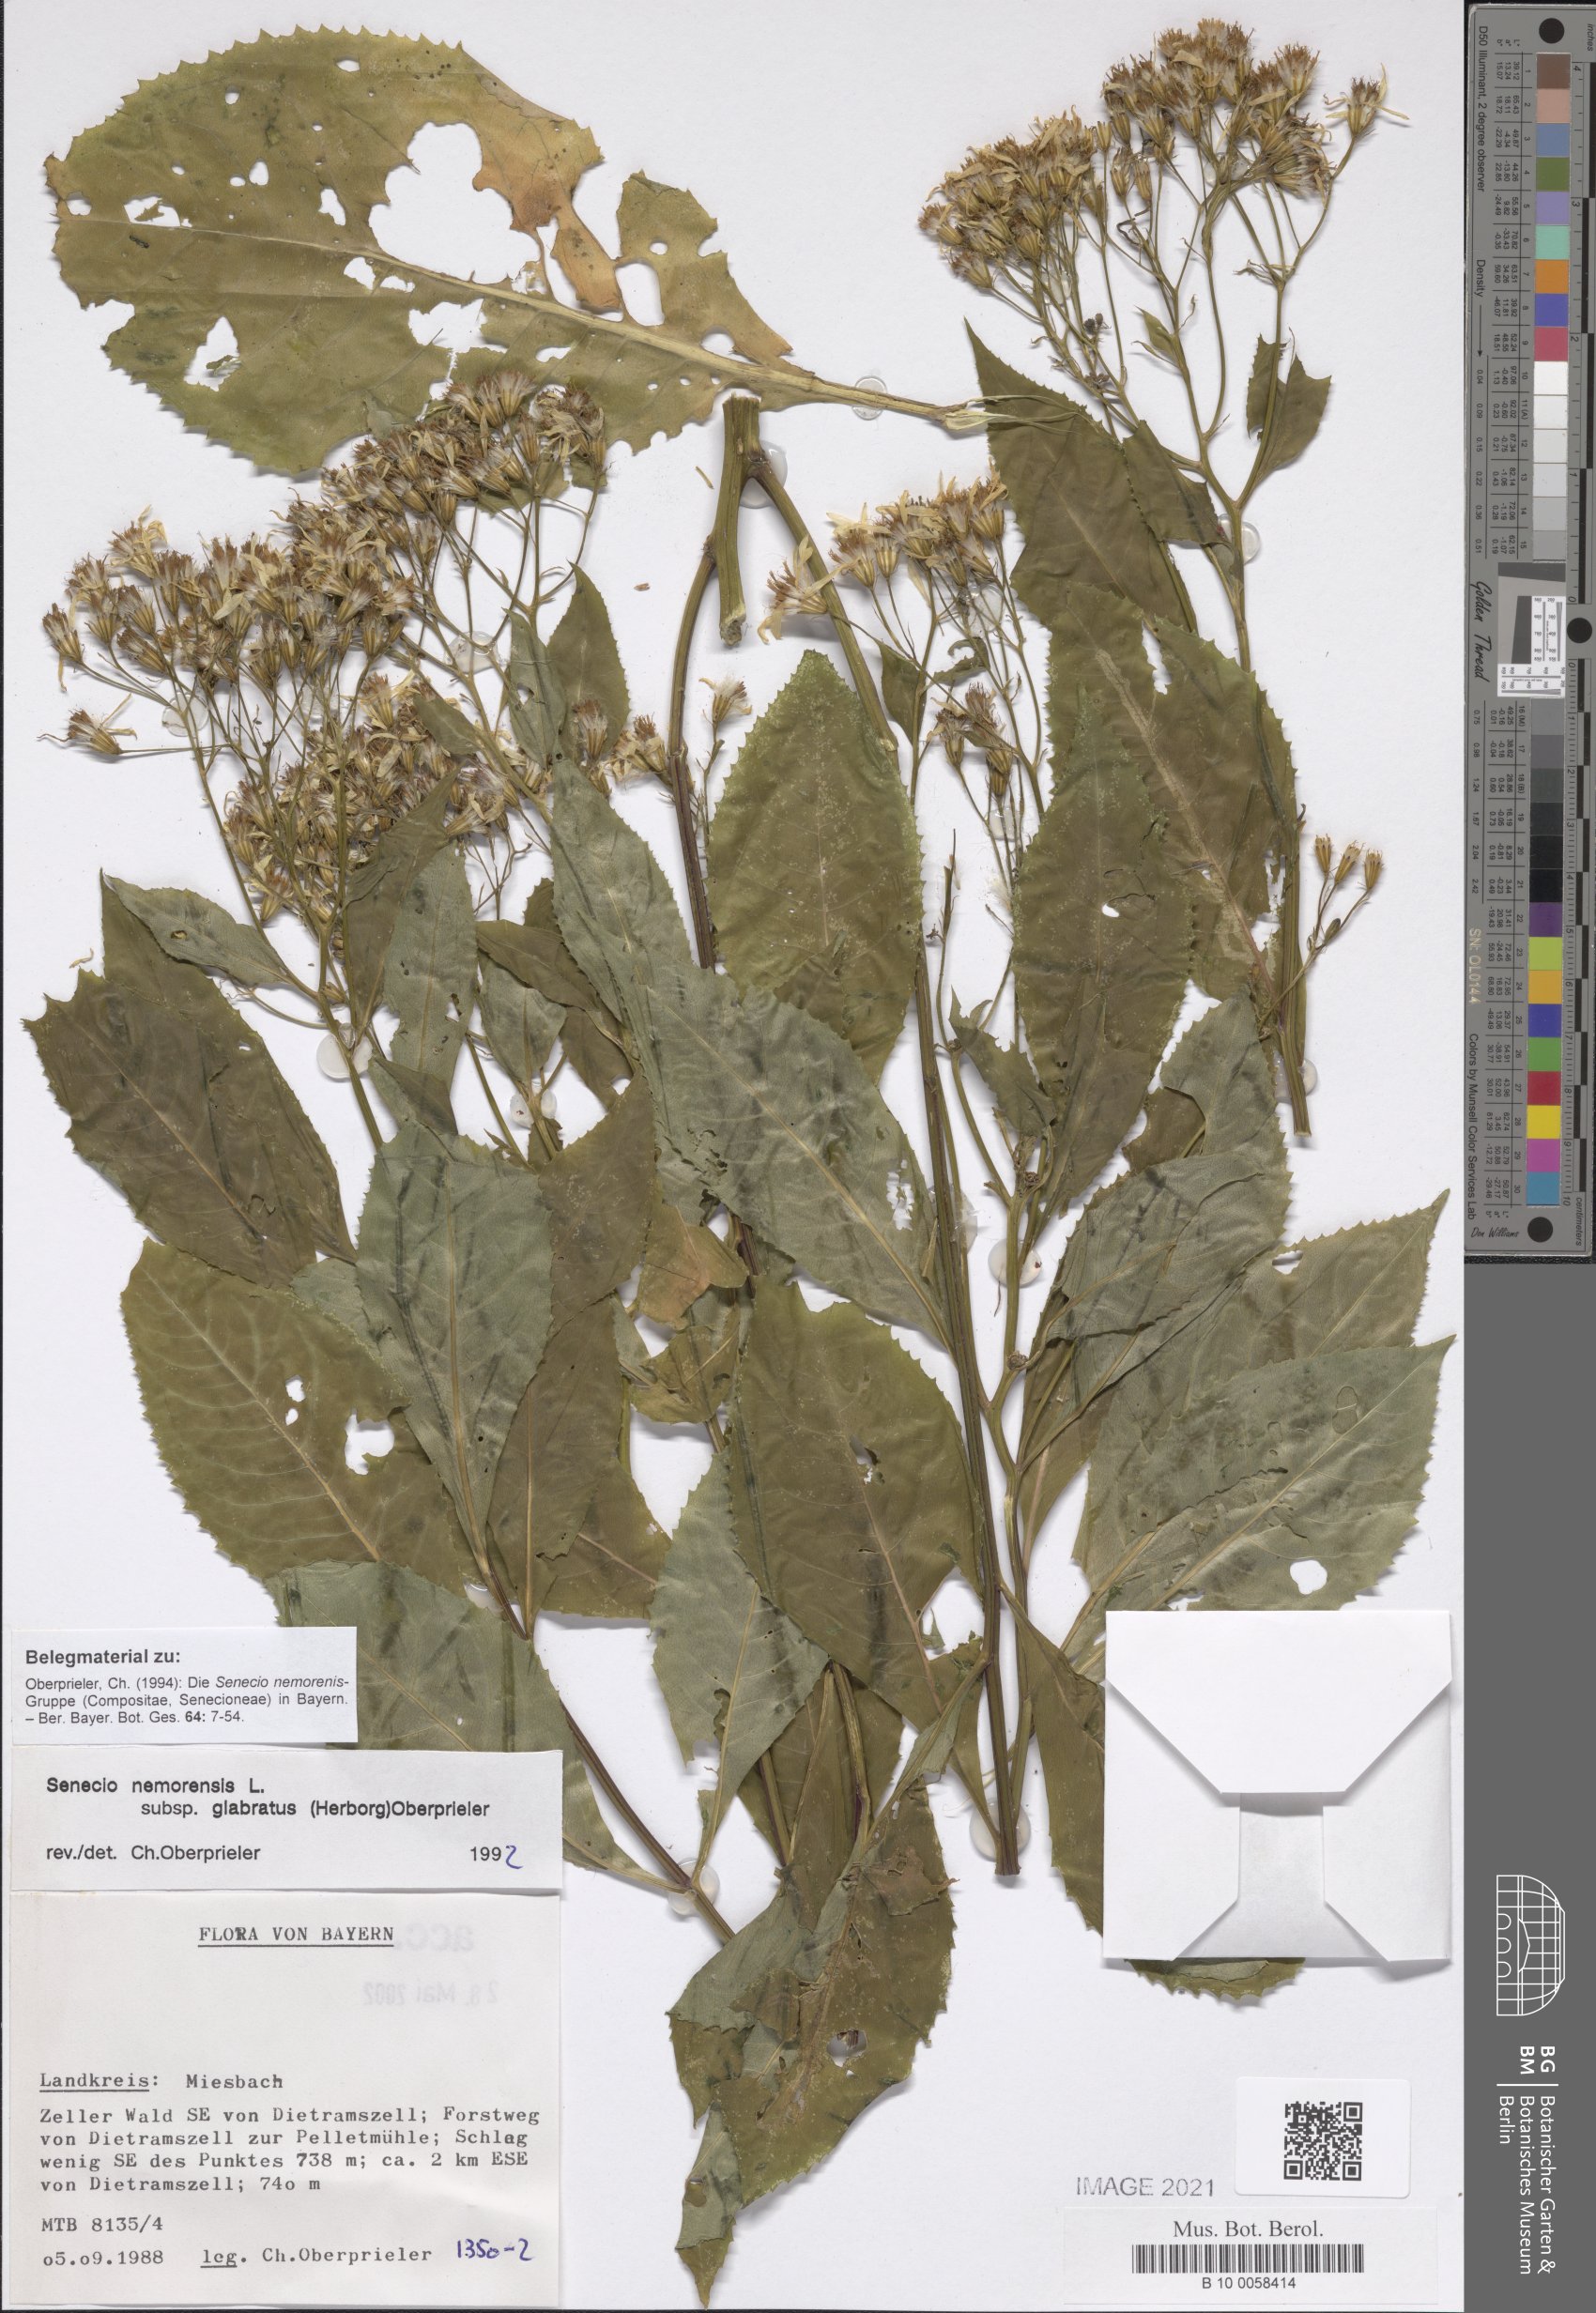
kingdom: Plantae
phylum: Tracheophyta
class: Magnoliopsida
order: Asterales
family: Asteraceae
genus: Senecio
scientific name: Senecio germanicus
